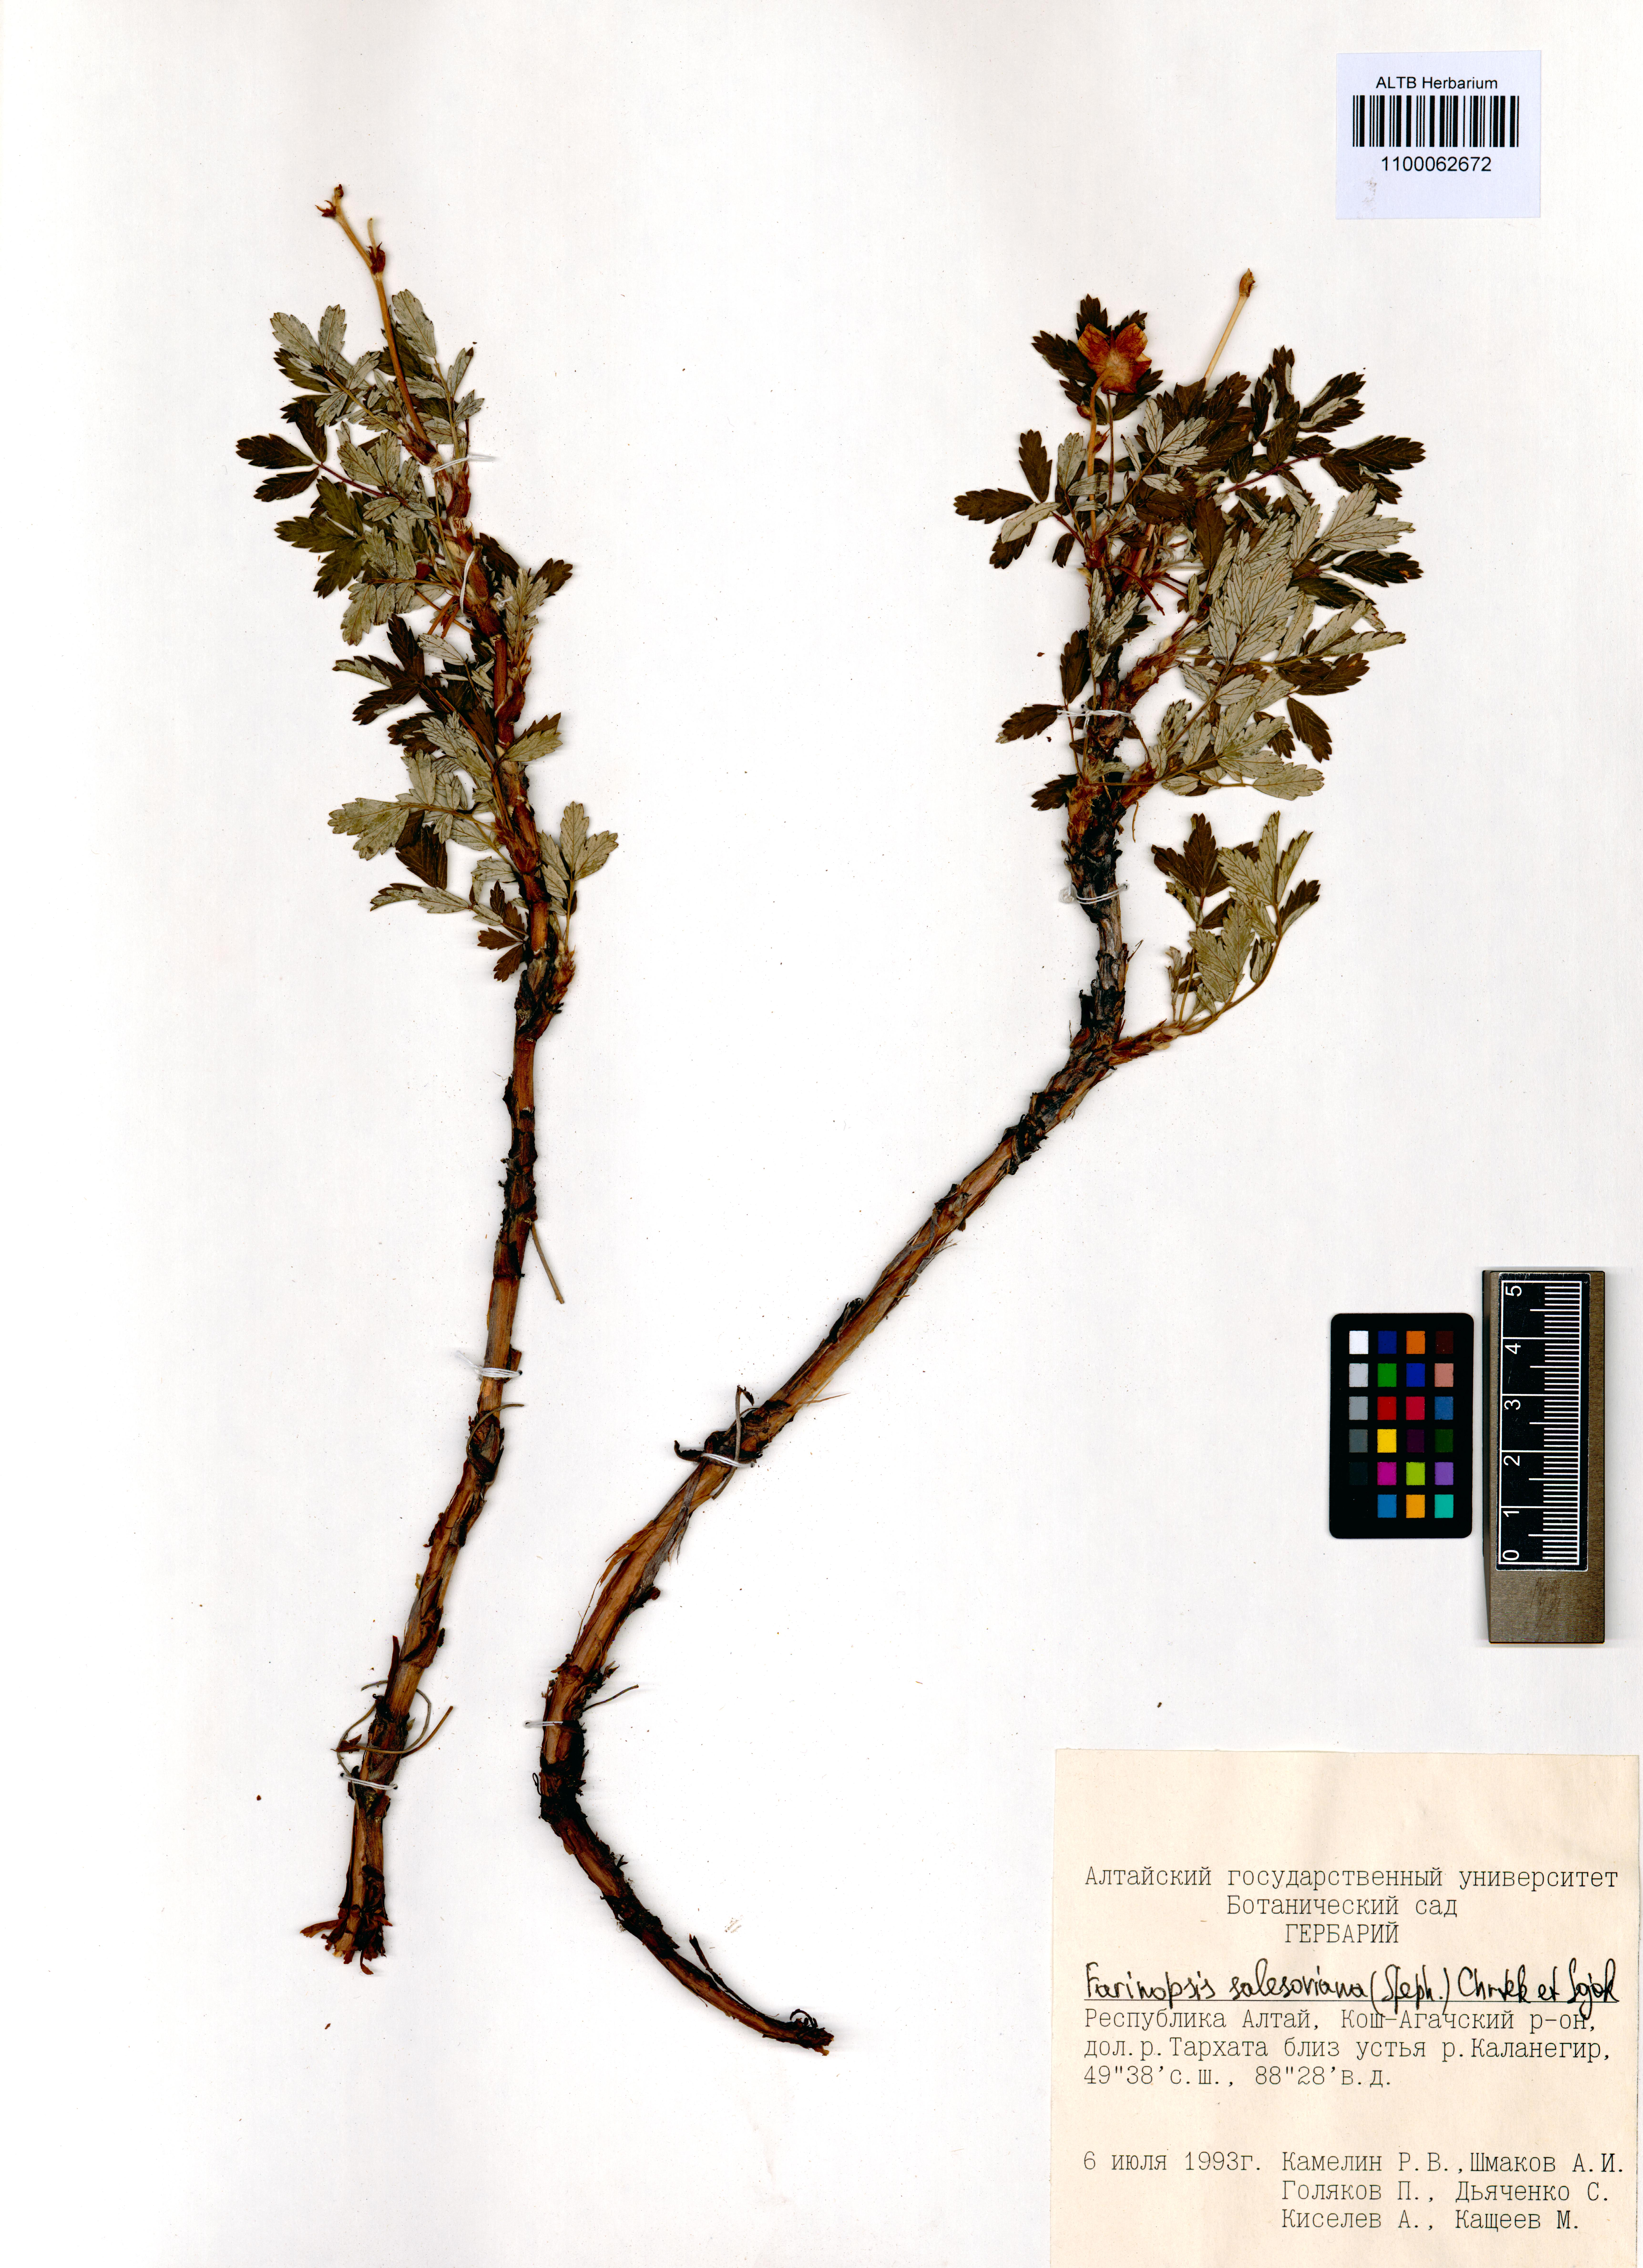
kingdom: Plantae
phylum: Tracheophyta
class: Magnoliopsida
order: Rosales
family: Rosaceae
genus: Farinopsis
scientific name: Farinopsis salesoviana
